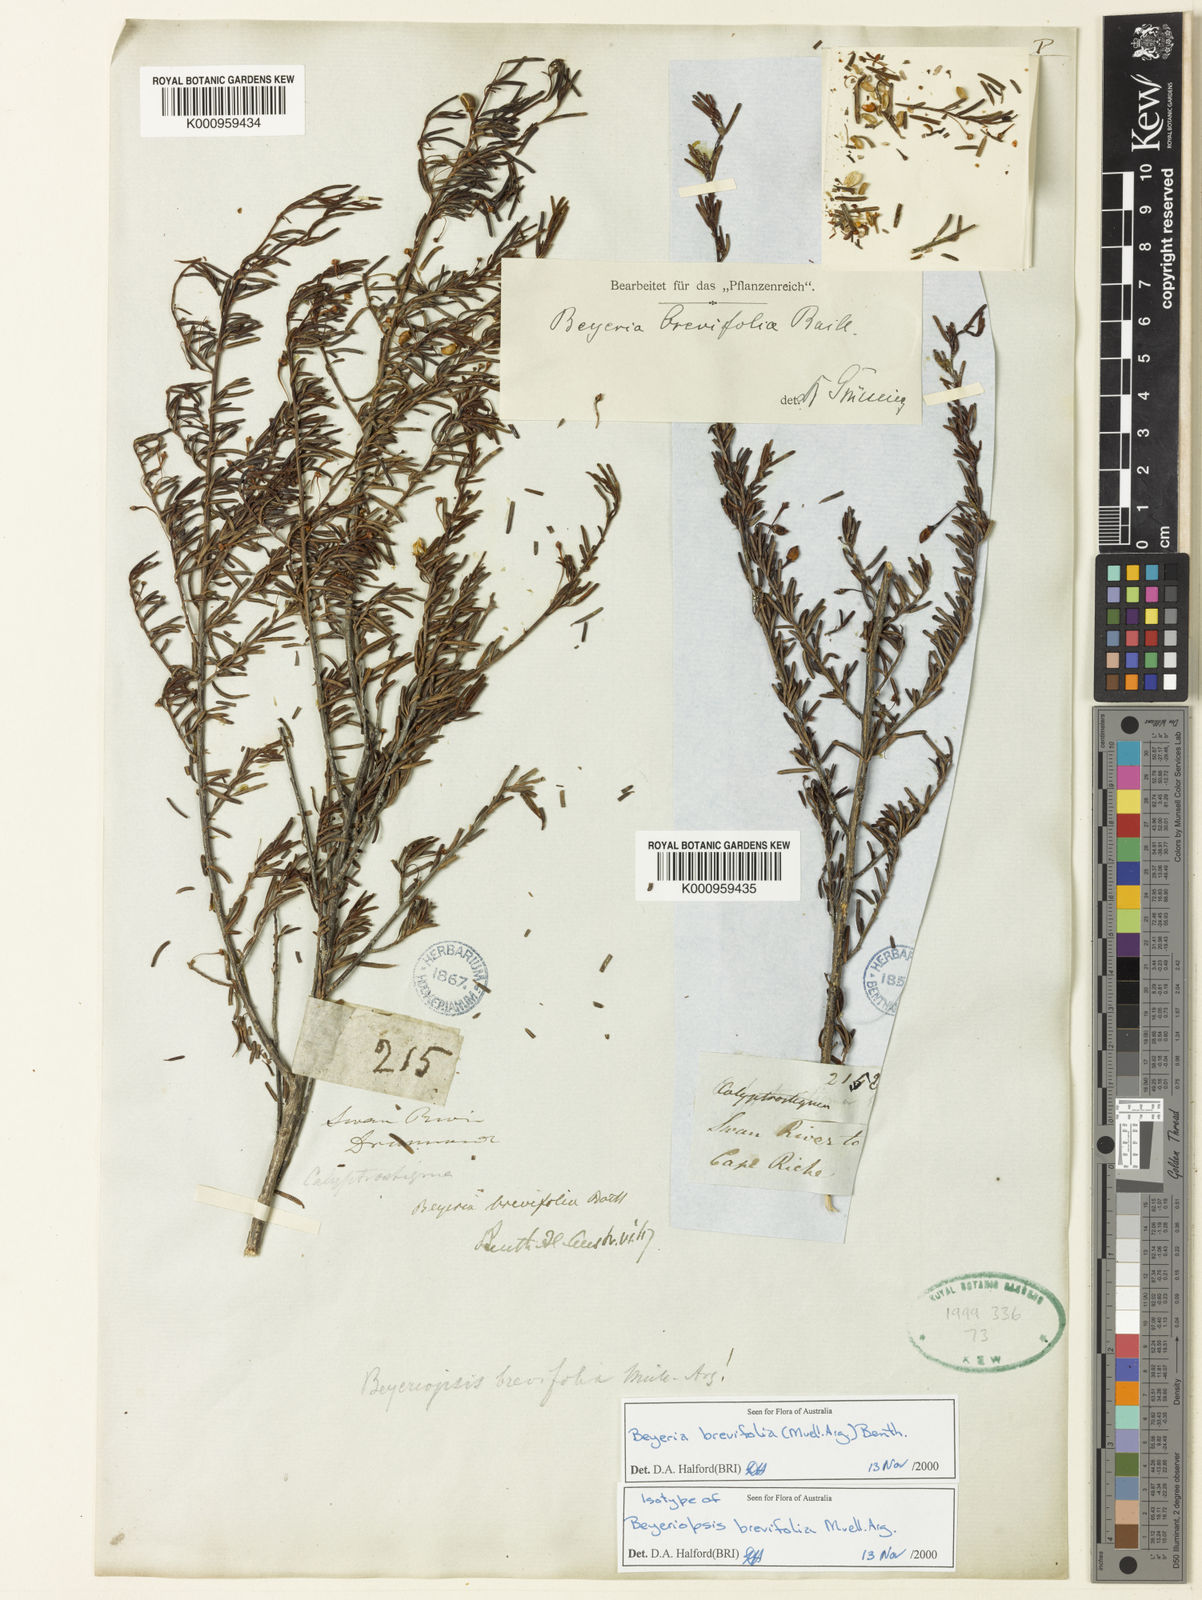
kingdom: Plantae
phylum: Tracheophyta
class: Magnoliopsida
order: Malpighiales
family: Euphorbiaceae
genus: Beyeria
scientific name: Beyeria
